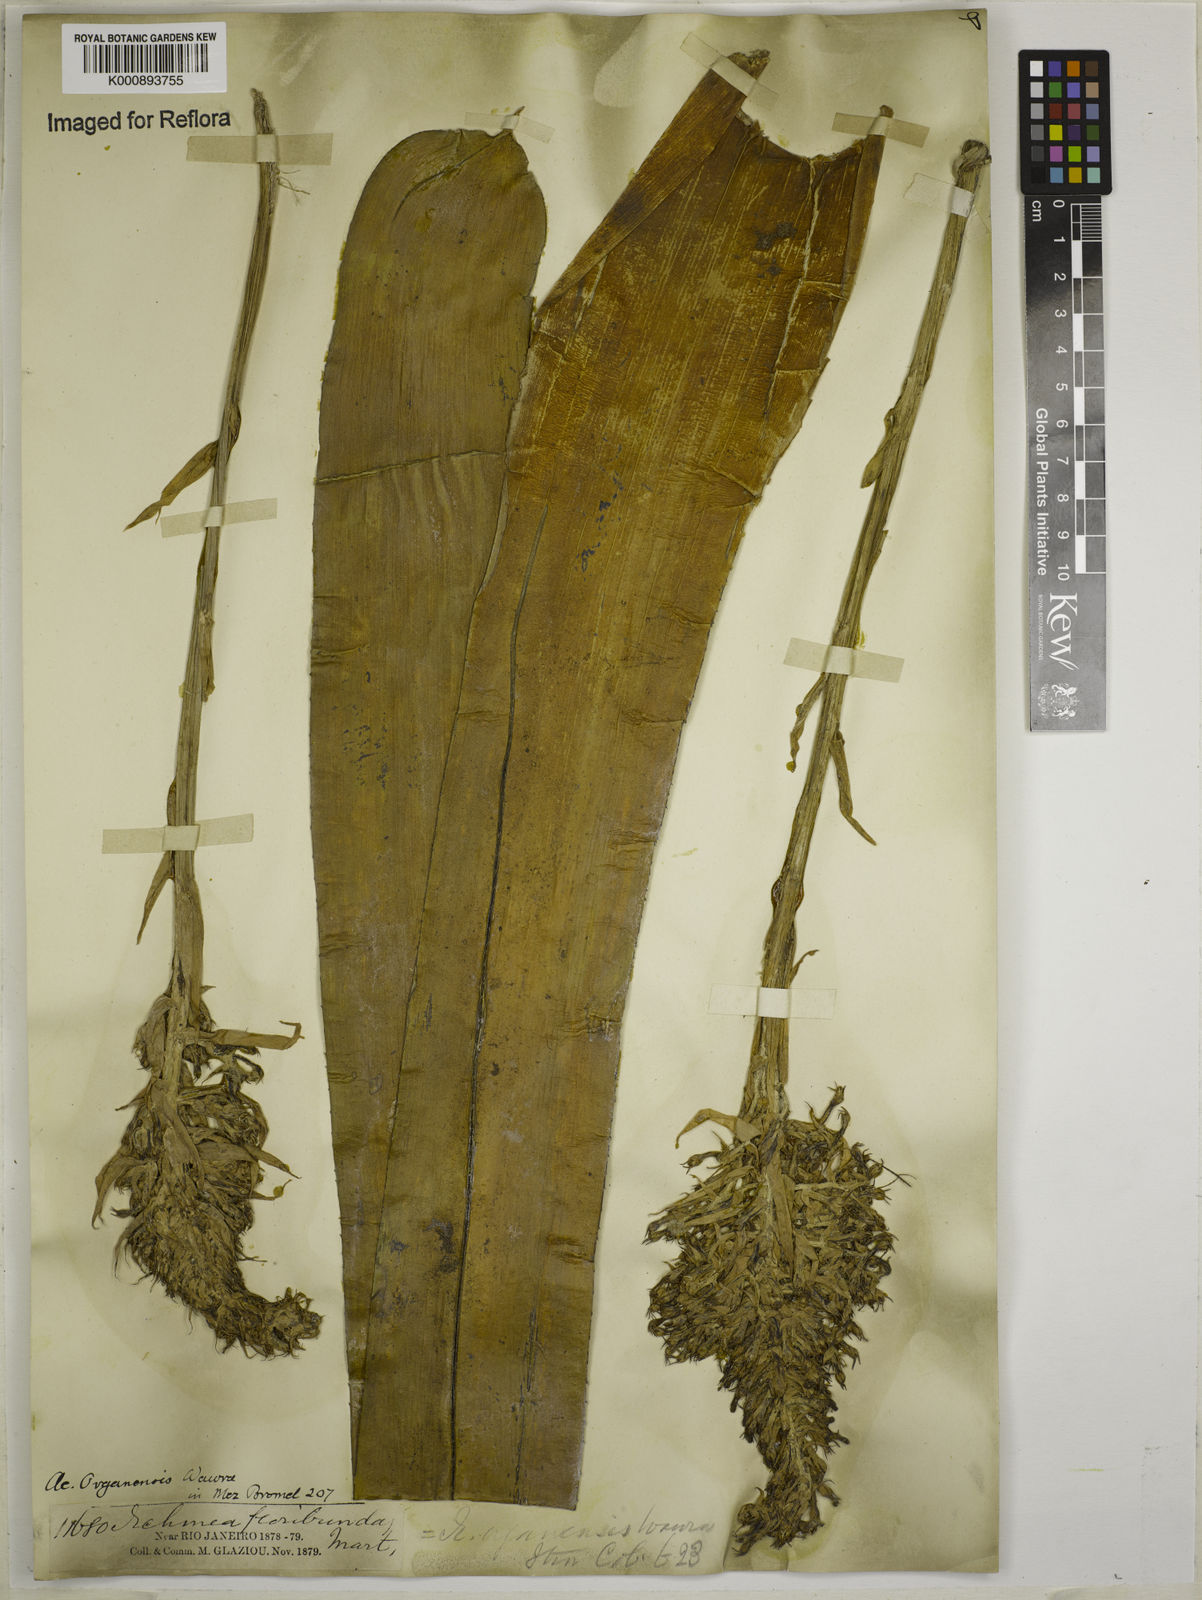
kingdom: Plantae
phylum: Tracheophyta
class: Liliopsida
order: Poales
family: Bromeliaceae
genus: Aechmea
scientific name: Aechmea organensis
